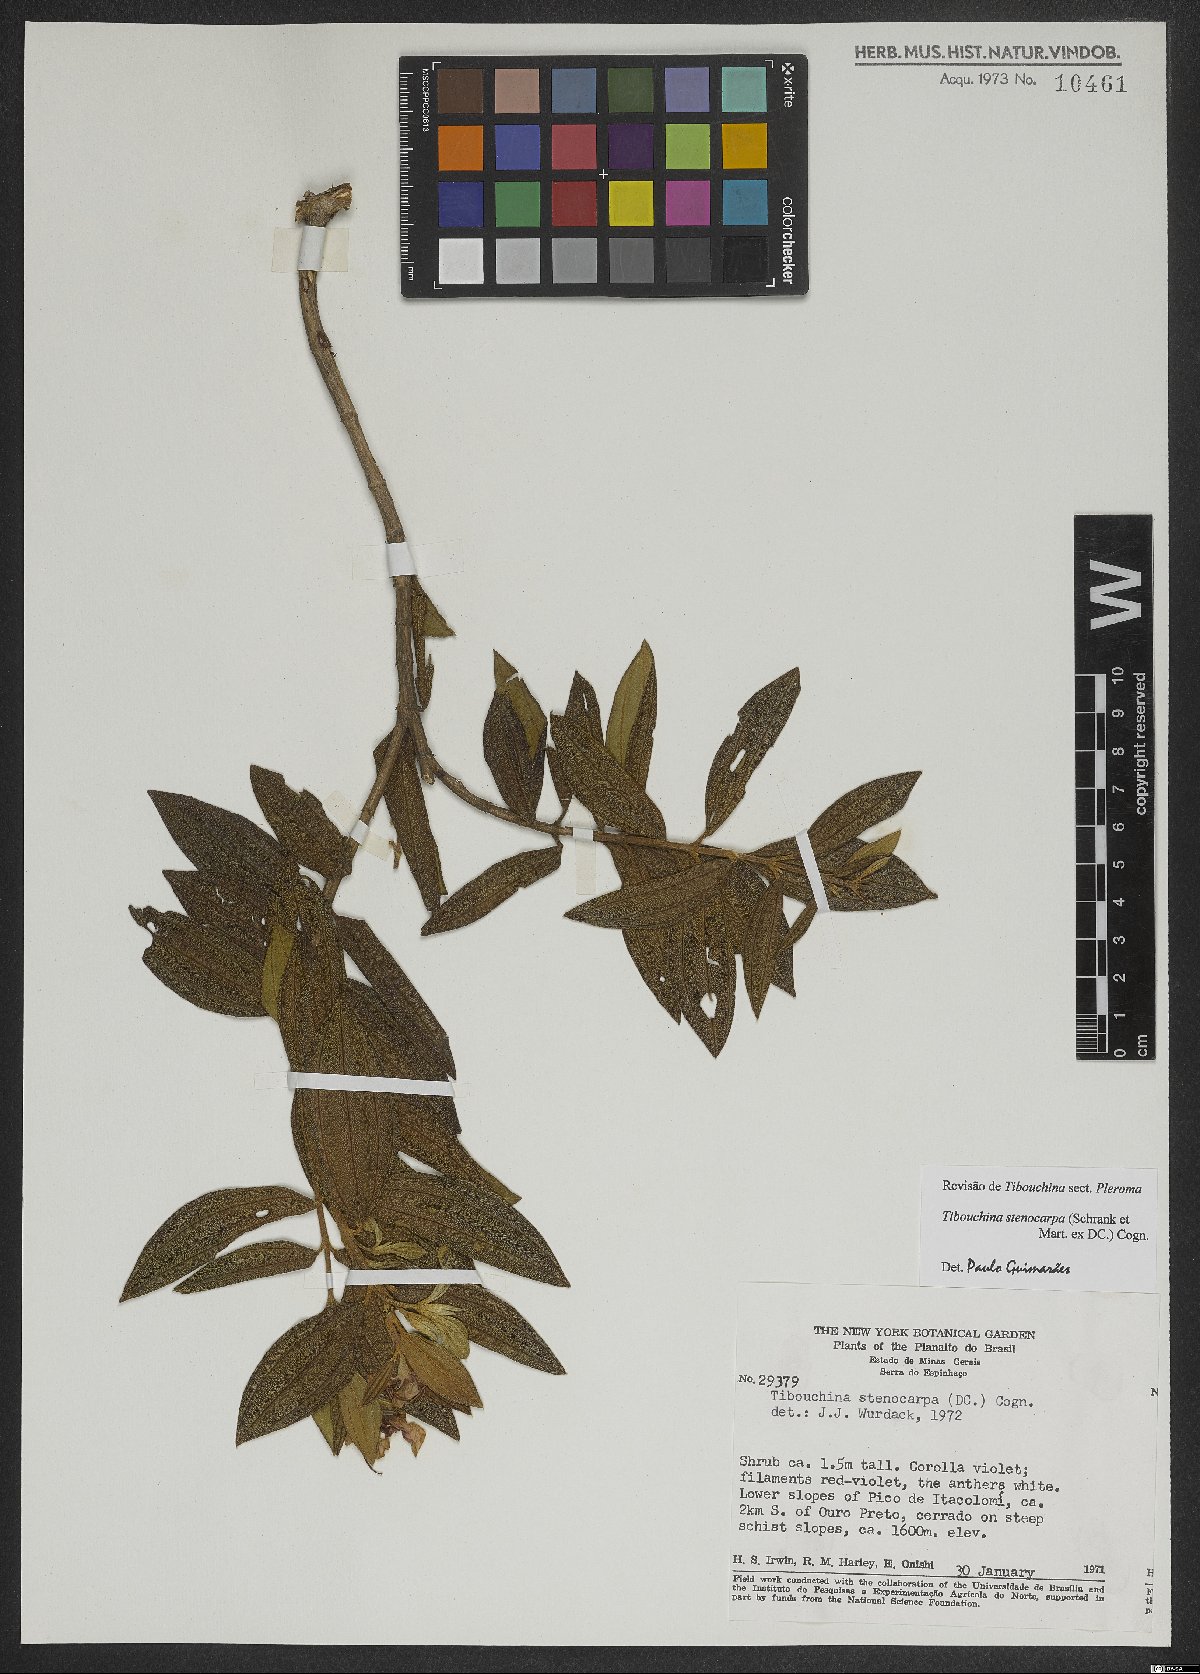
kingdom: Plantae
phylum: Tracheophyta
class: Magnoliopsida
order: Myrtales
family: Melastomataceae
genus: Pleroma
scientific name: Pleroma stenocarpum
